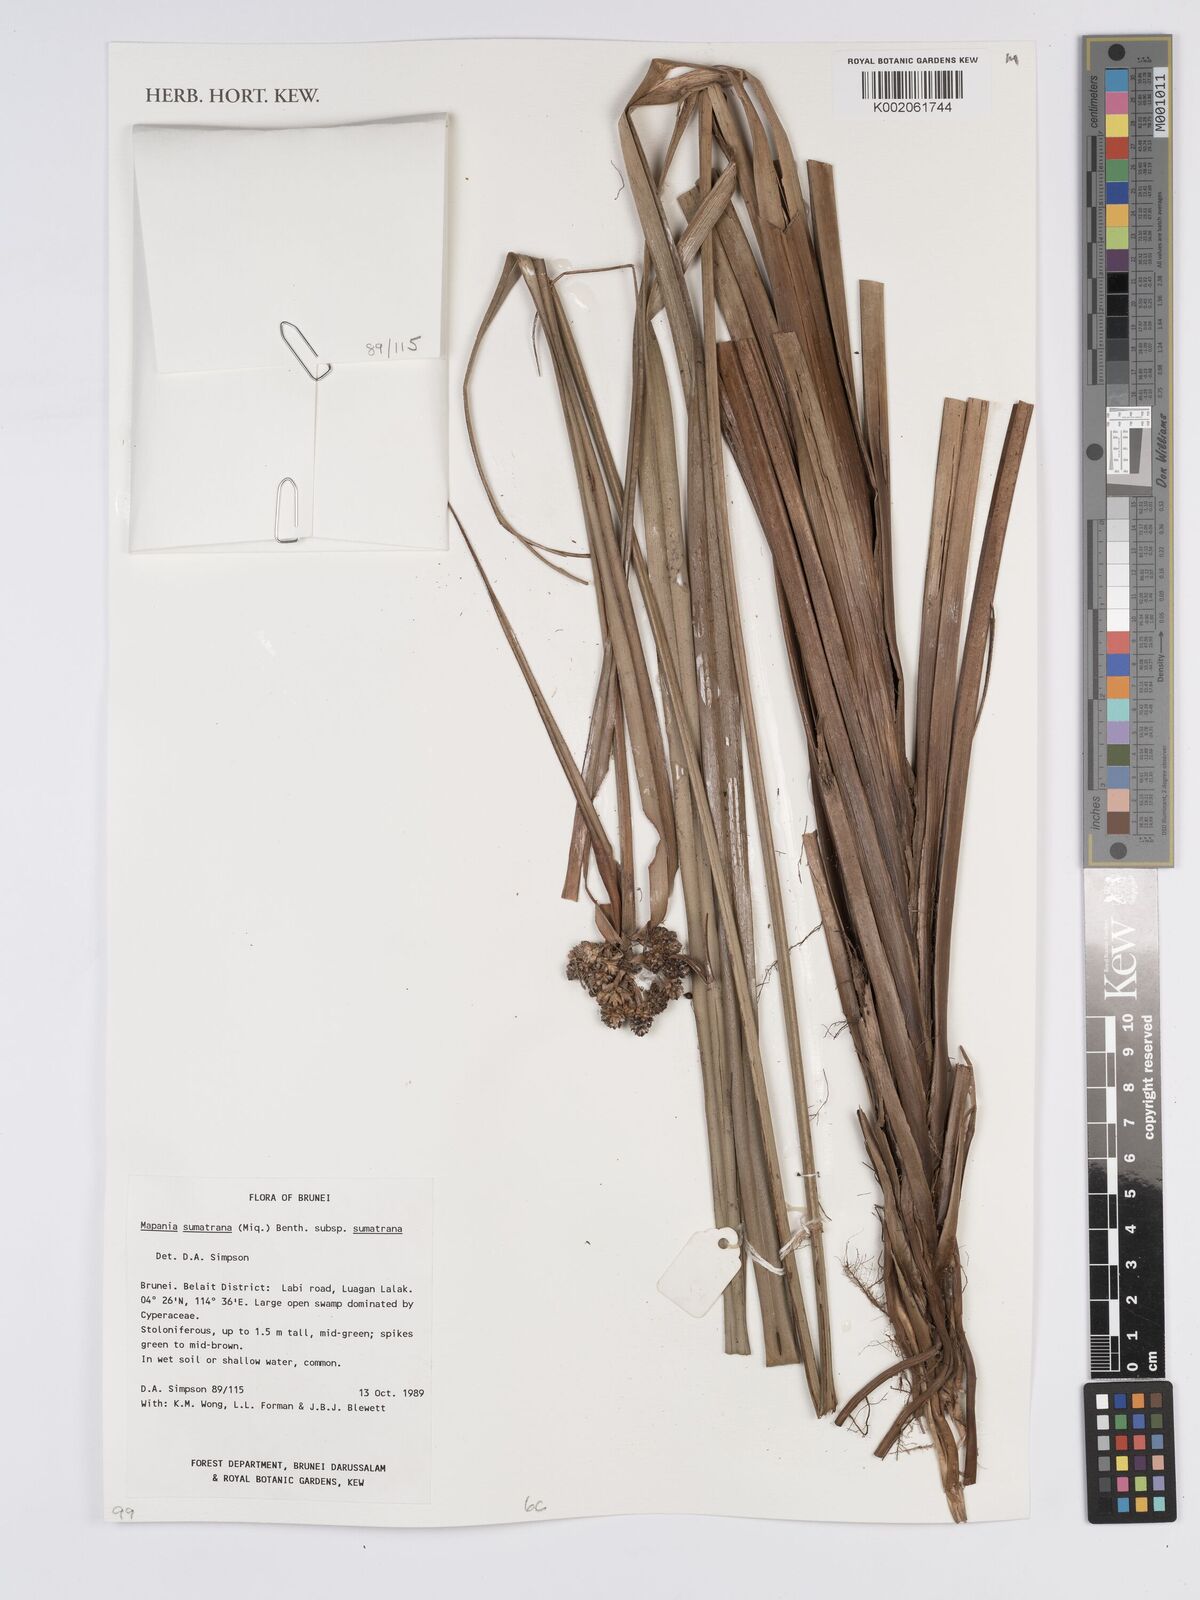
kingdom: Plantae
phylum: Tracheophyta
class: Liliopsida
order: Poales
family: Cyperaceae
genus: Mapania
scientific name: Mapania sumatrana
